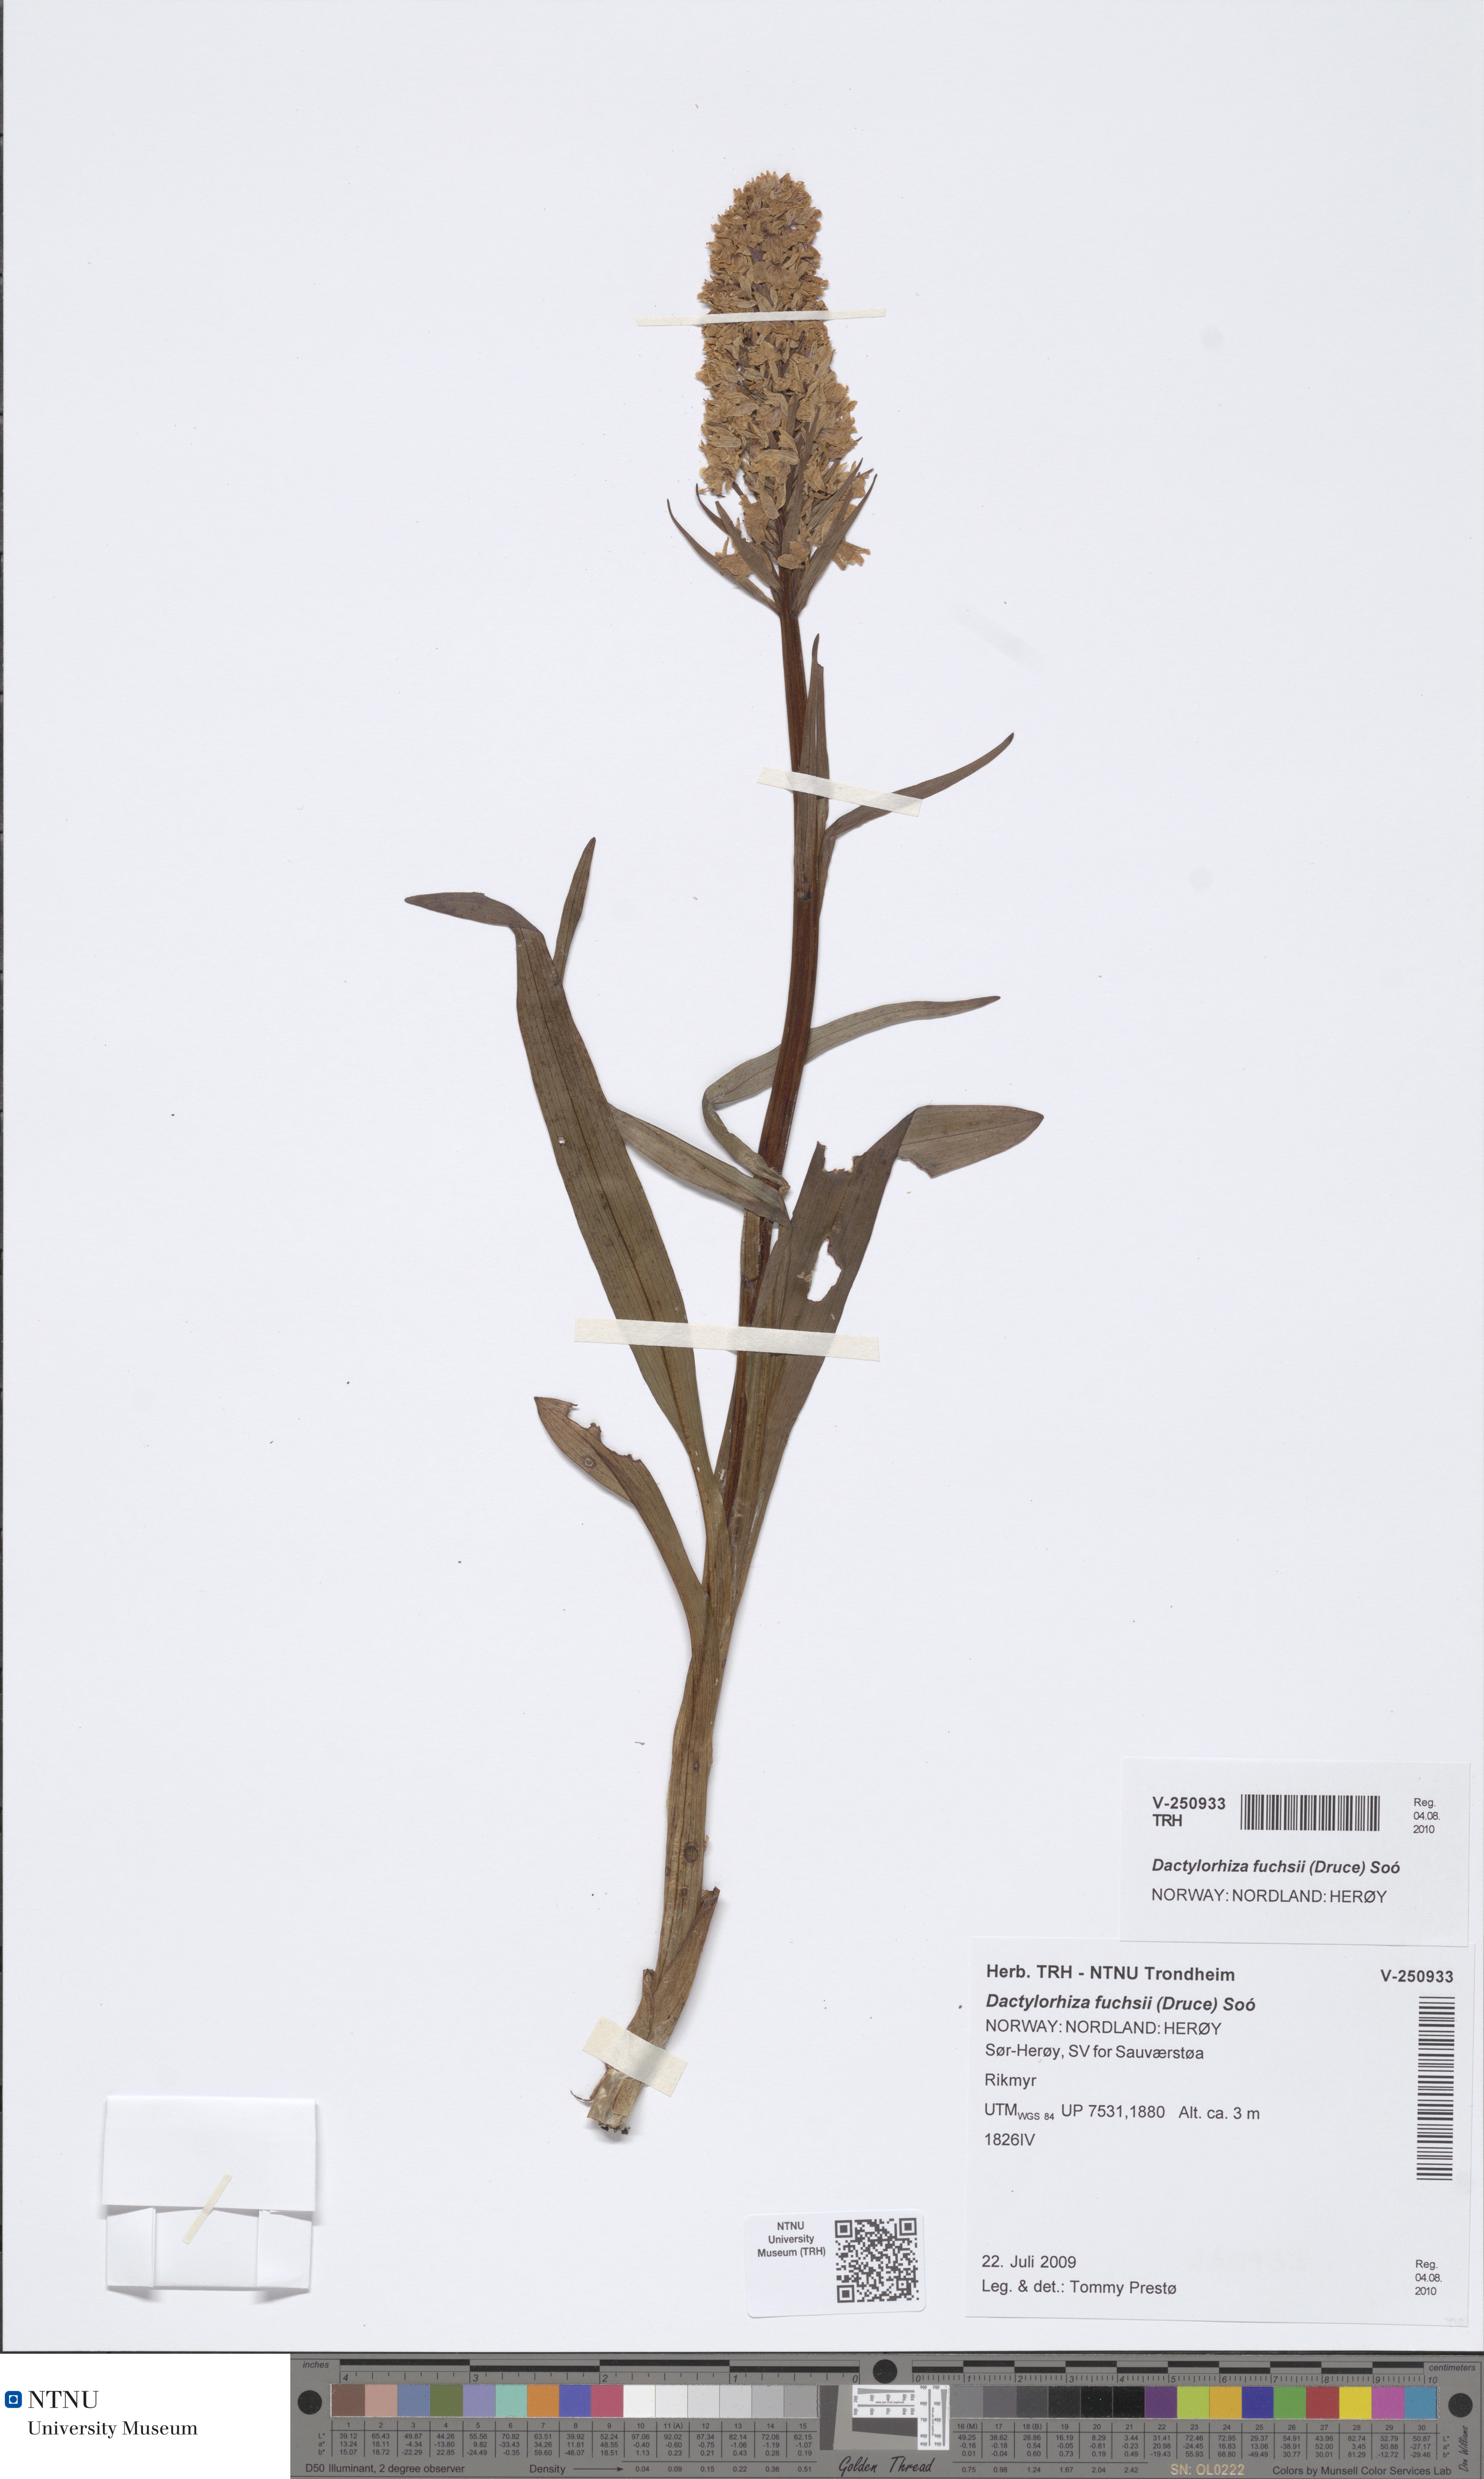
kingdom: Plantae
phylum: Tracheophyta
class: Liliopsida
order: Asparagales
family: Orchidaceae
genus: Dactylorhiza
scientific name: Dactylorhiza maculata
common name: Heath spotted-orchid
